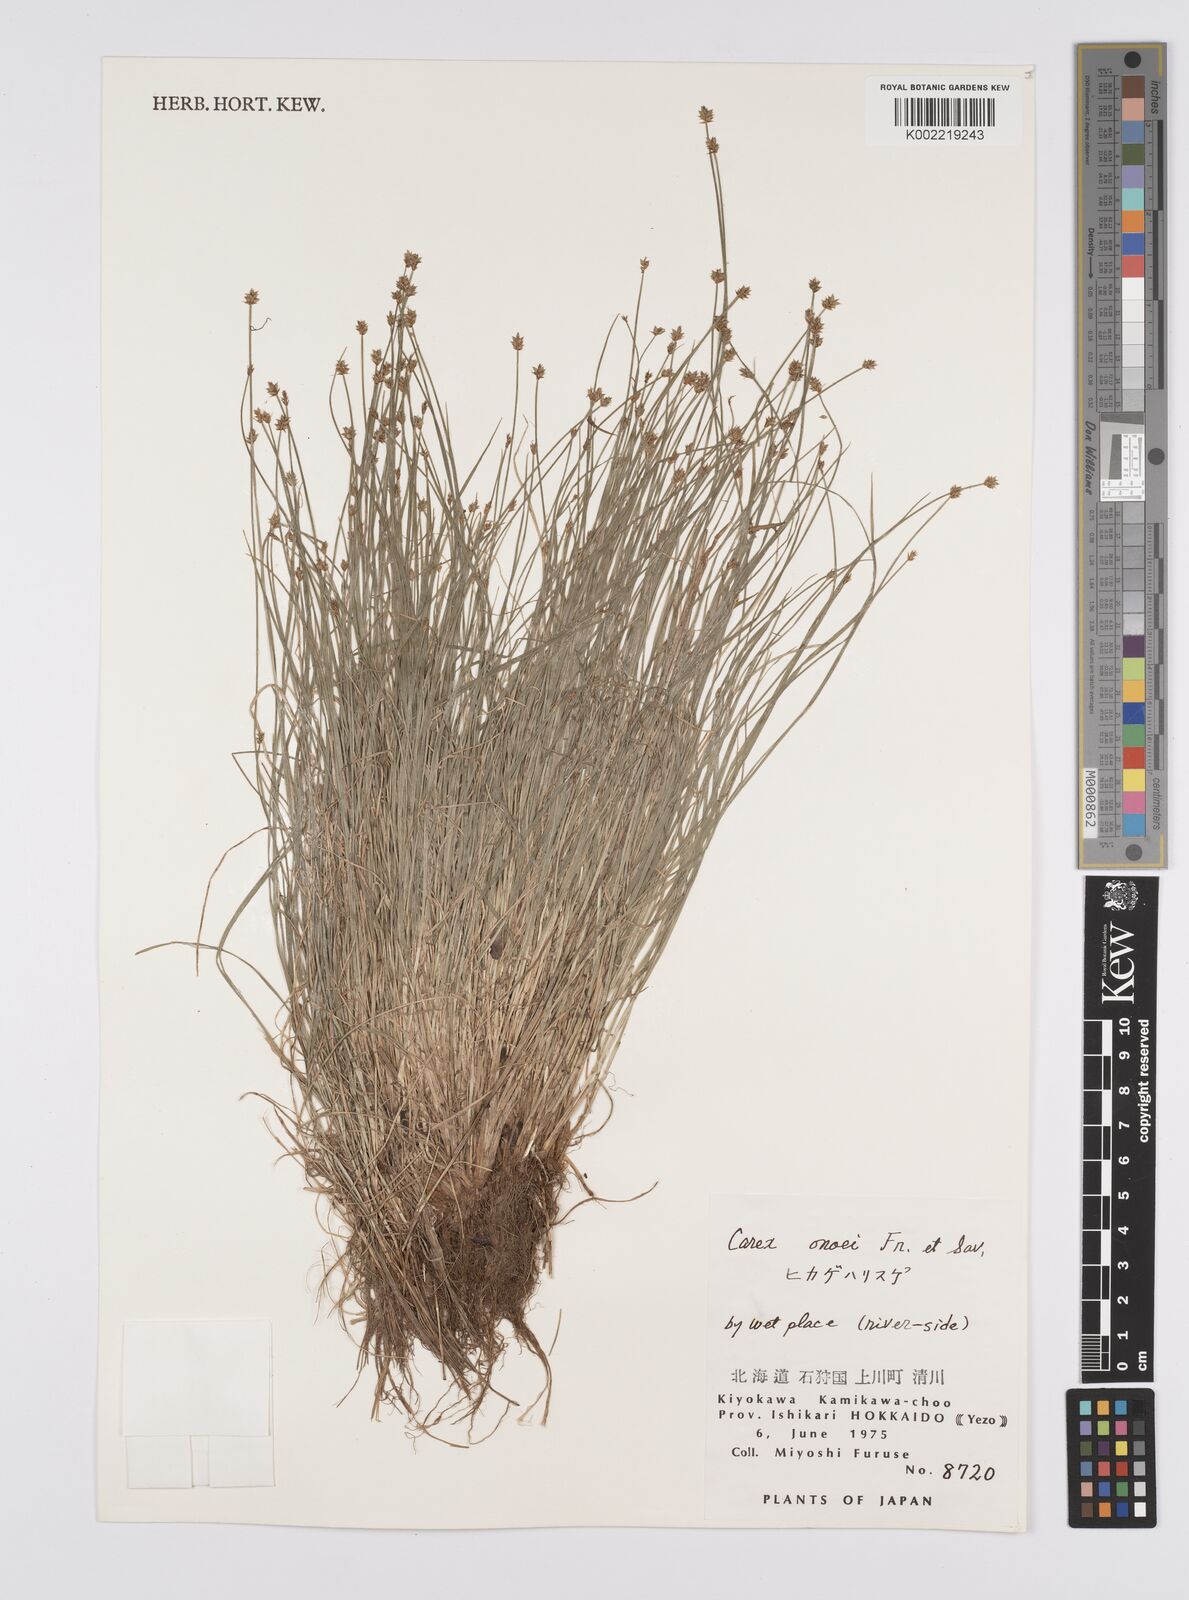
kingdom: Plantae
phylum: Tracheophyta
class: Liliopsida
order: Poales
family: Cyperaceae
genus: Carex
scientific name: Carex onoei
